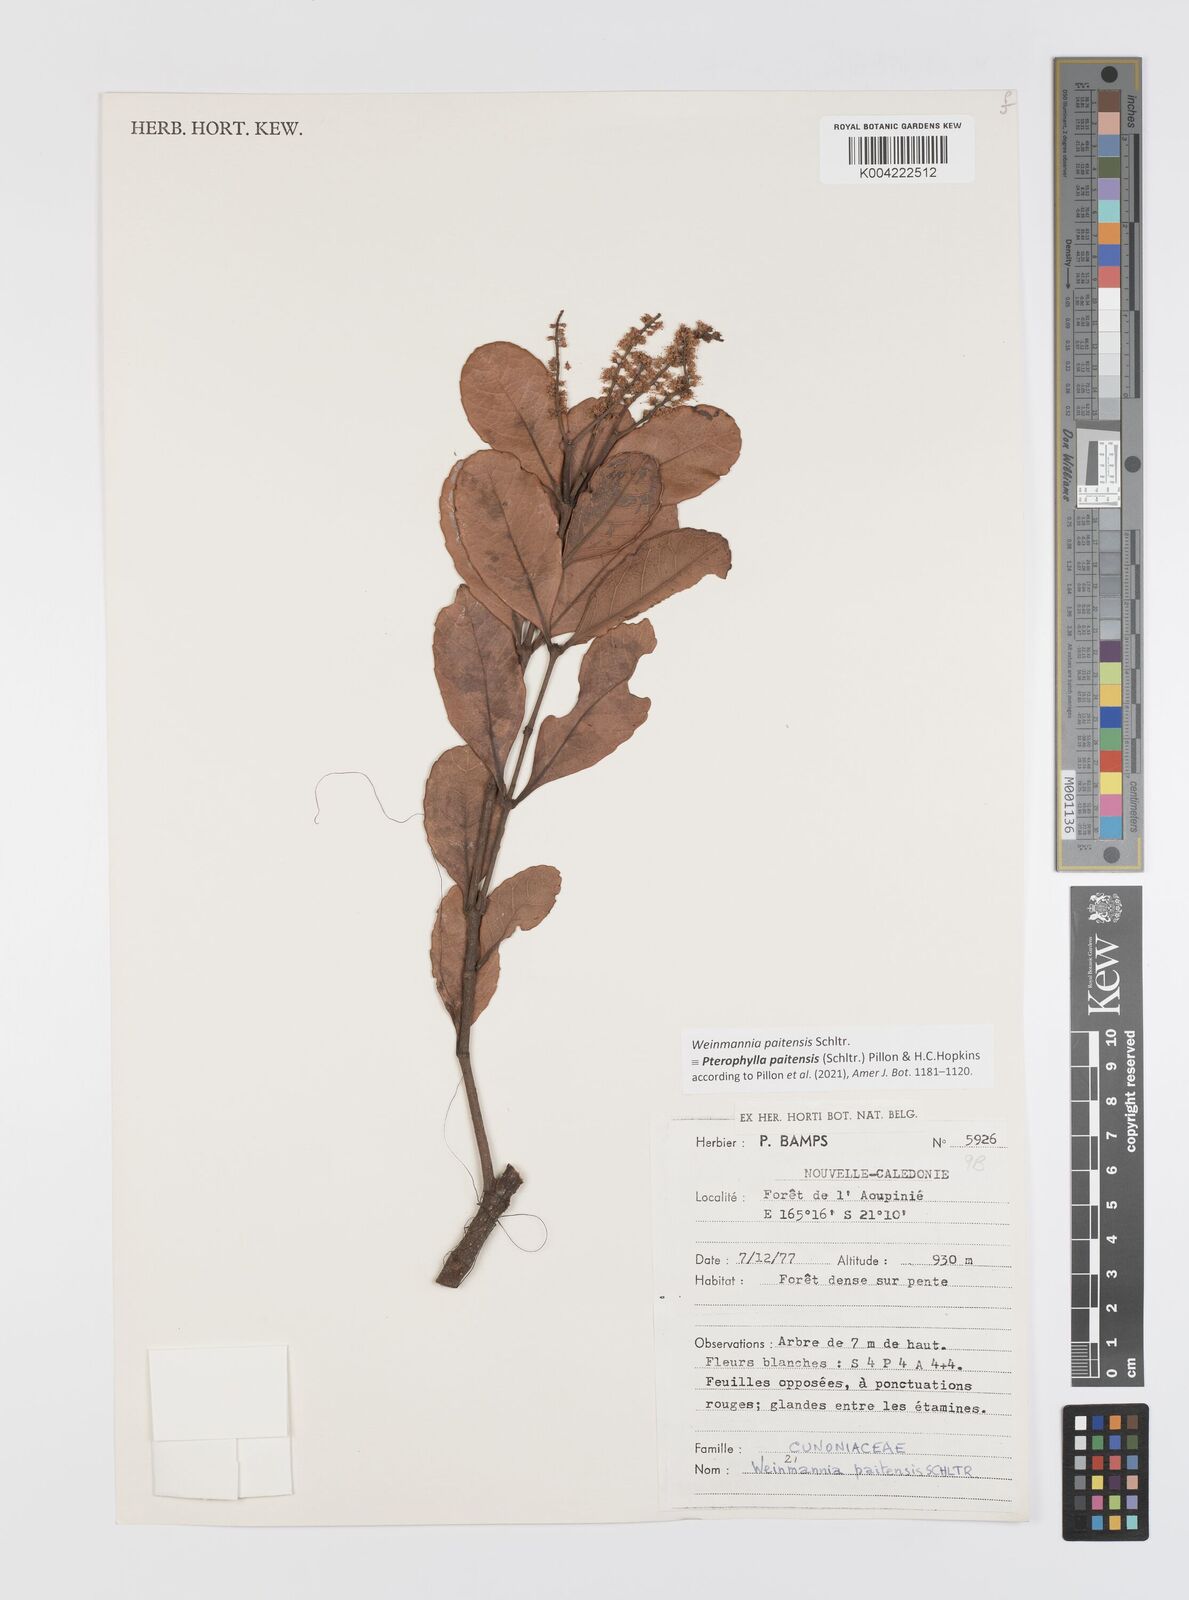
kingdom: Plantae
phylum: Tracheophyta
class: Magnoliopsida
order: Oxalidales
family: Cunoniaceae
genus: Pterophylla
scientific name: Pterophylla paitensis
